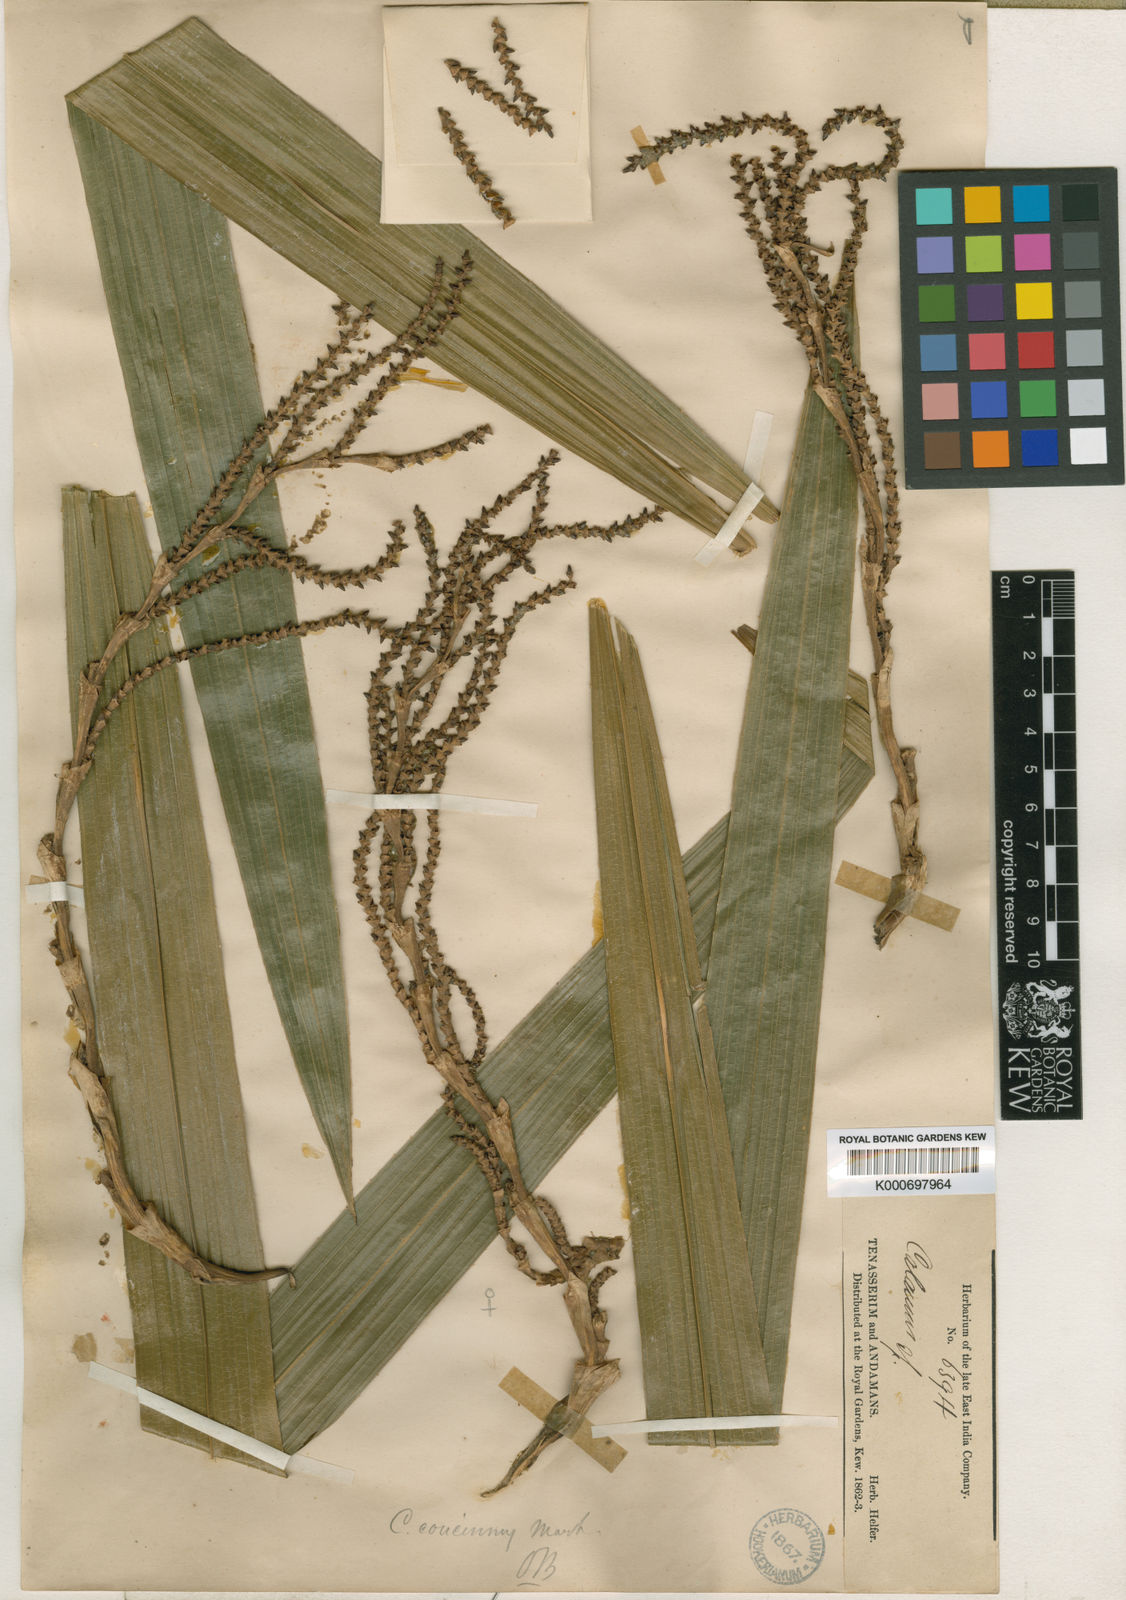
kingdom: Plantae
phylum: Tracheophyta
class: Liliopsida
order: Arecales
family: Arecaceae
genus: Calamus
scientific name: Calamus concinnus
